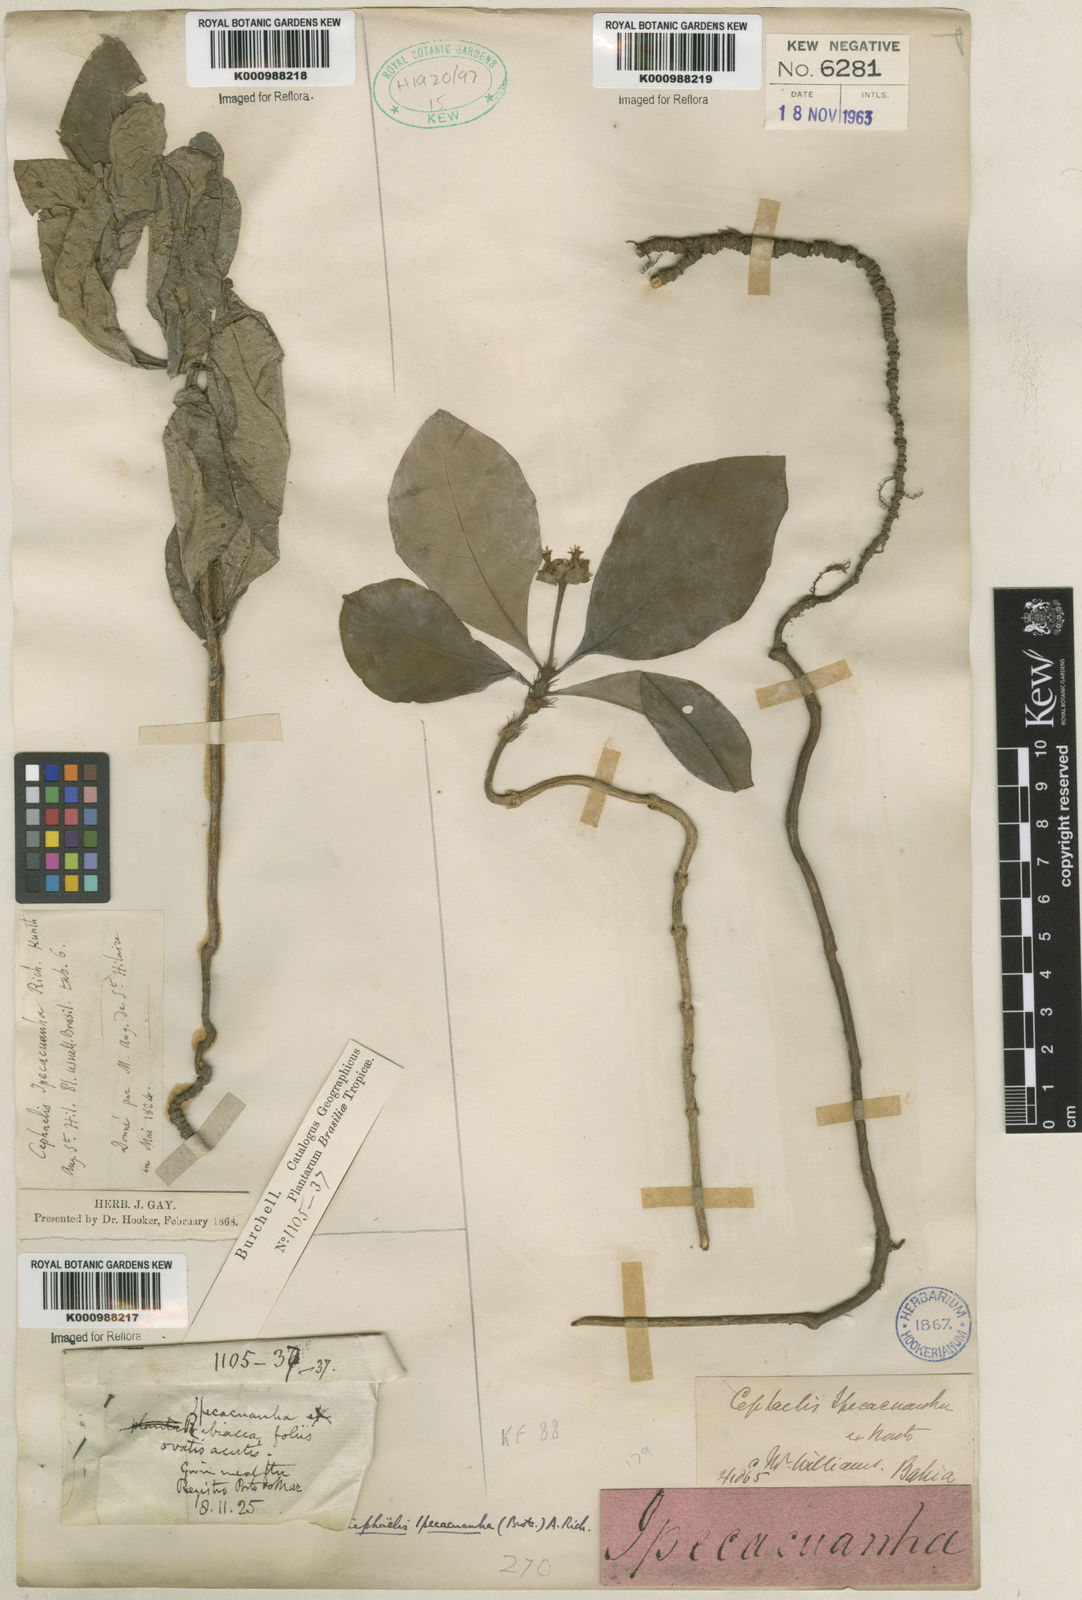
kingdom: Plantae
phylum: Tracheophyta
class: Magnoliopsida
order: Gentianales
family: Rubiaceae
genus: Carapichea
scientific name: Carapichea ipecacuanha
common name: Ipecac
